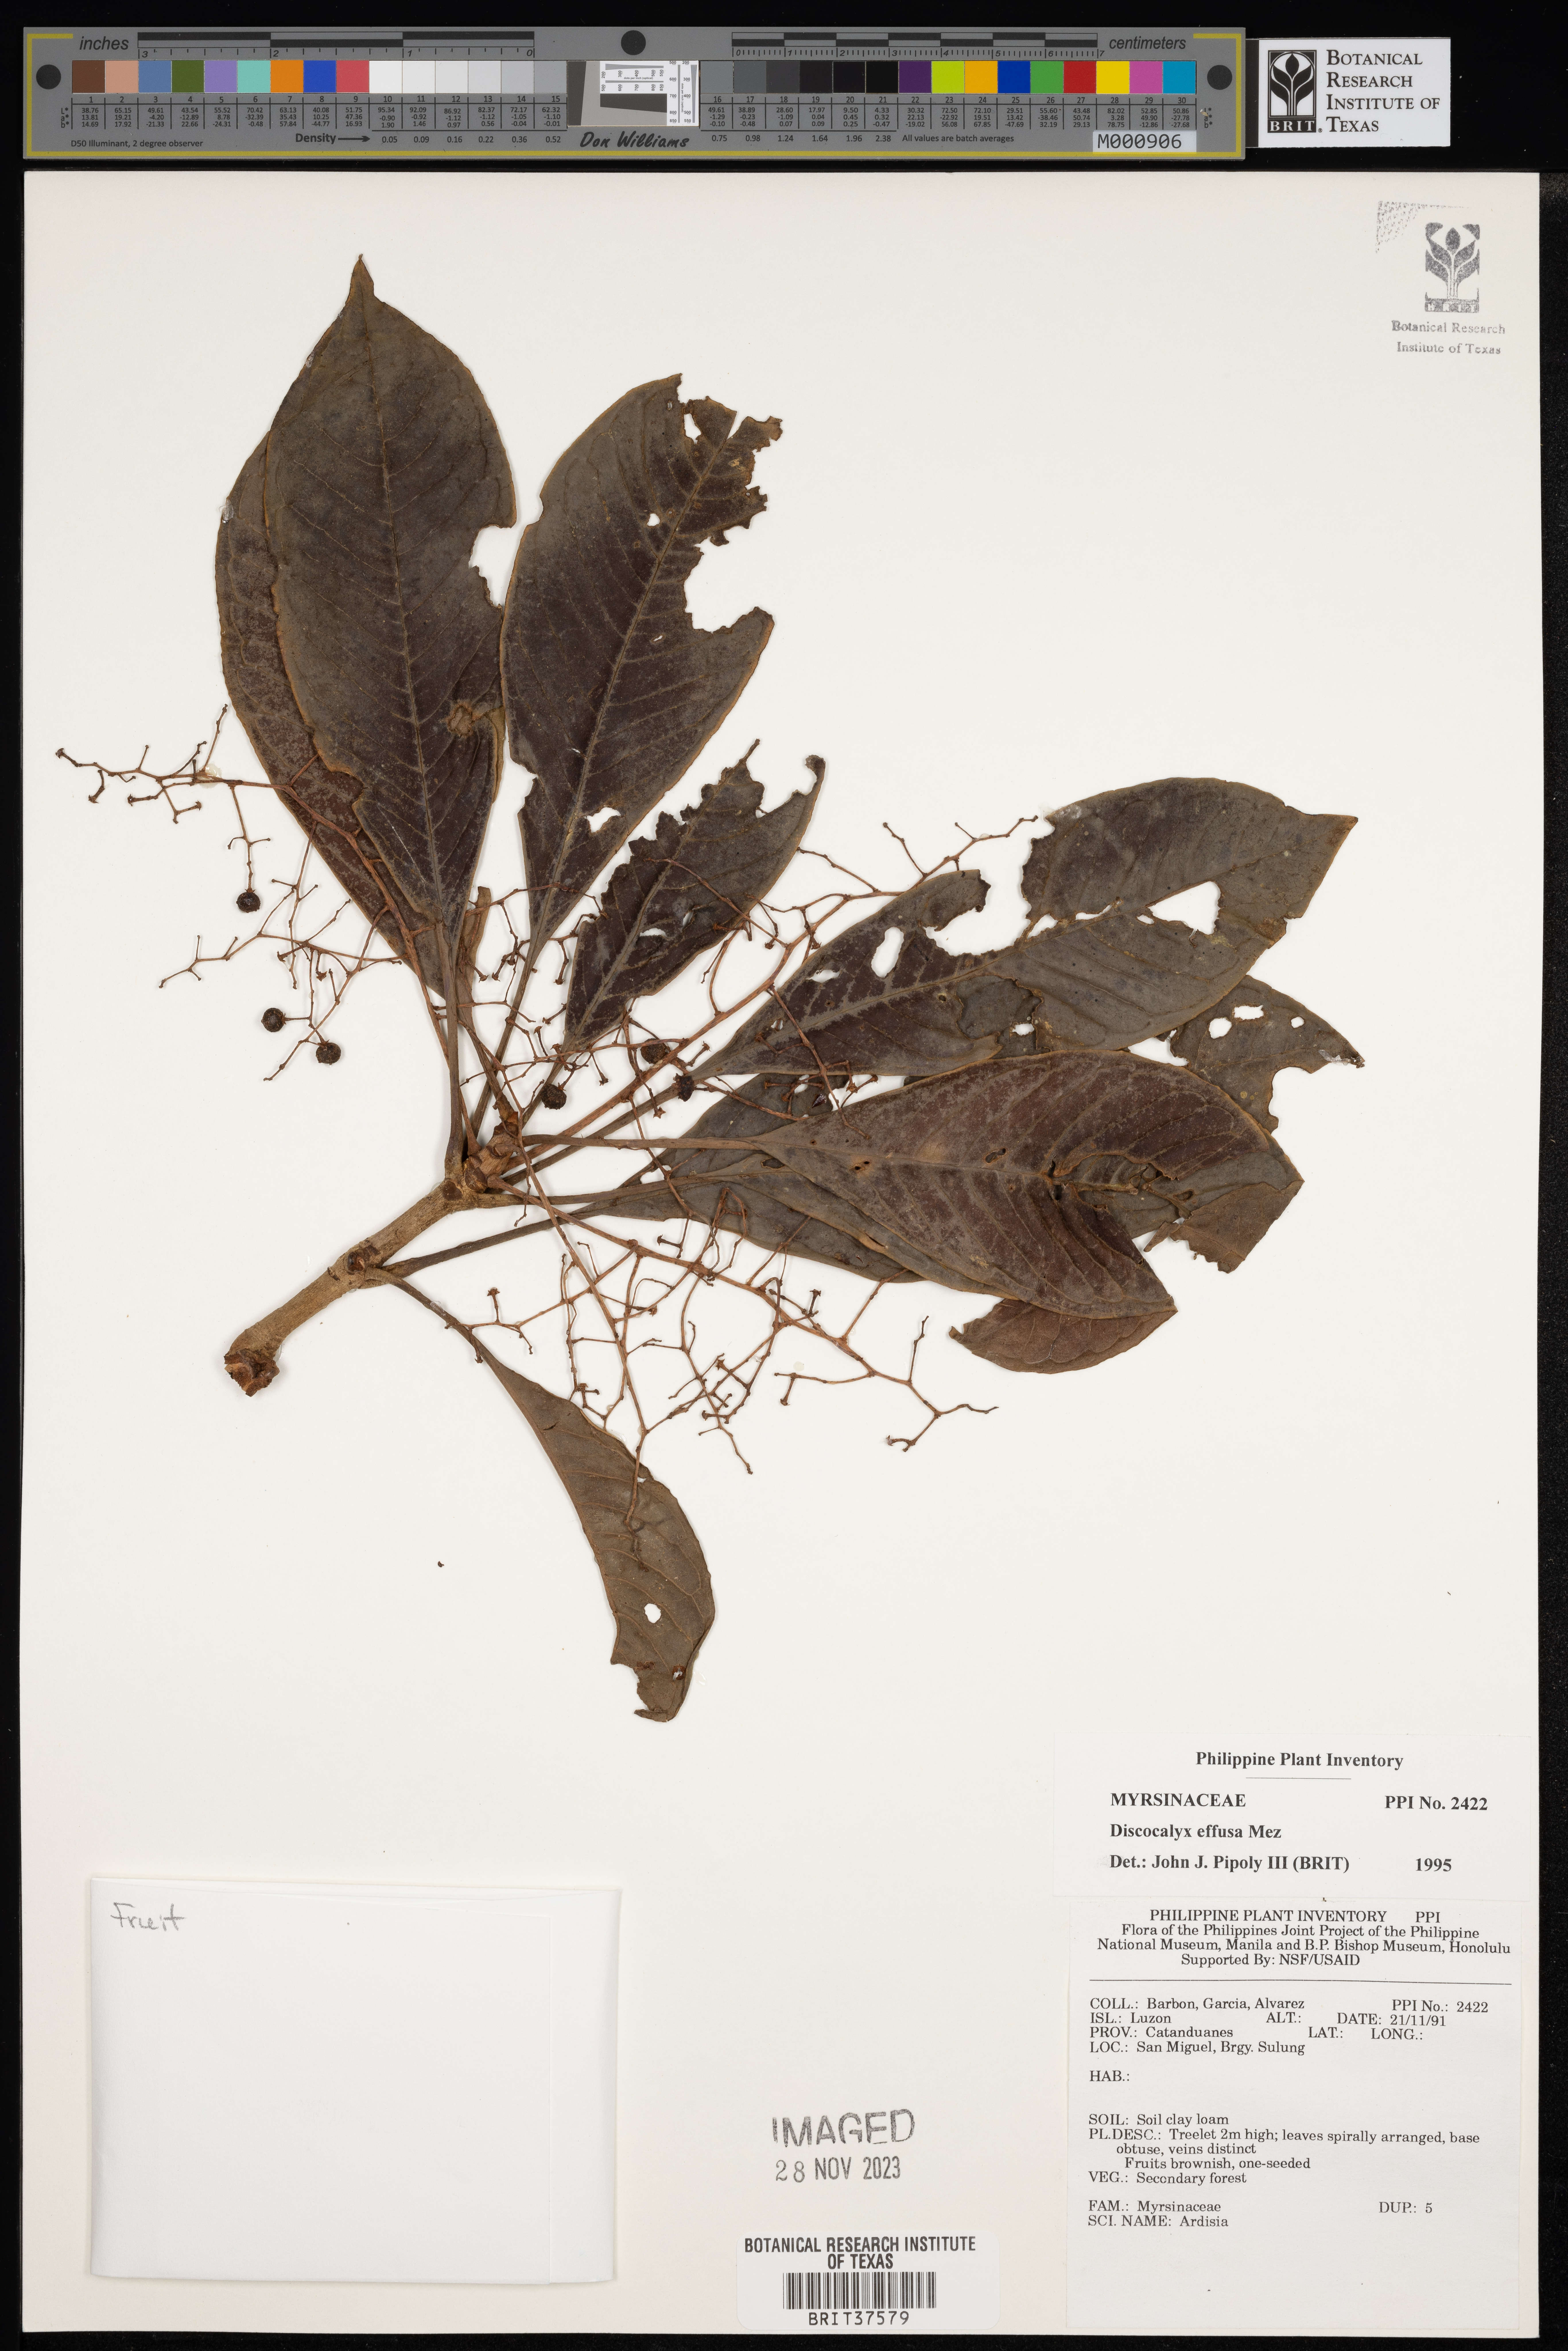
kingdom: Plantae
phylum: Tracheophyta
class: Magnoliopsida
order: Ericales
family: Primulaceae
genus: Discocalyx
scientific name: Discocalyx effusa
